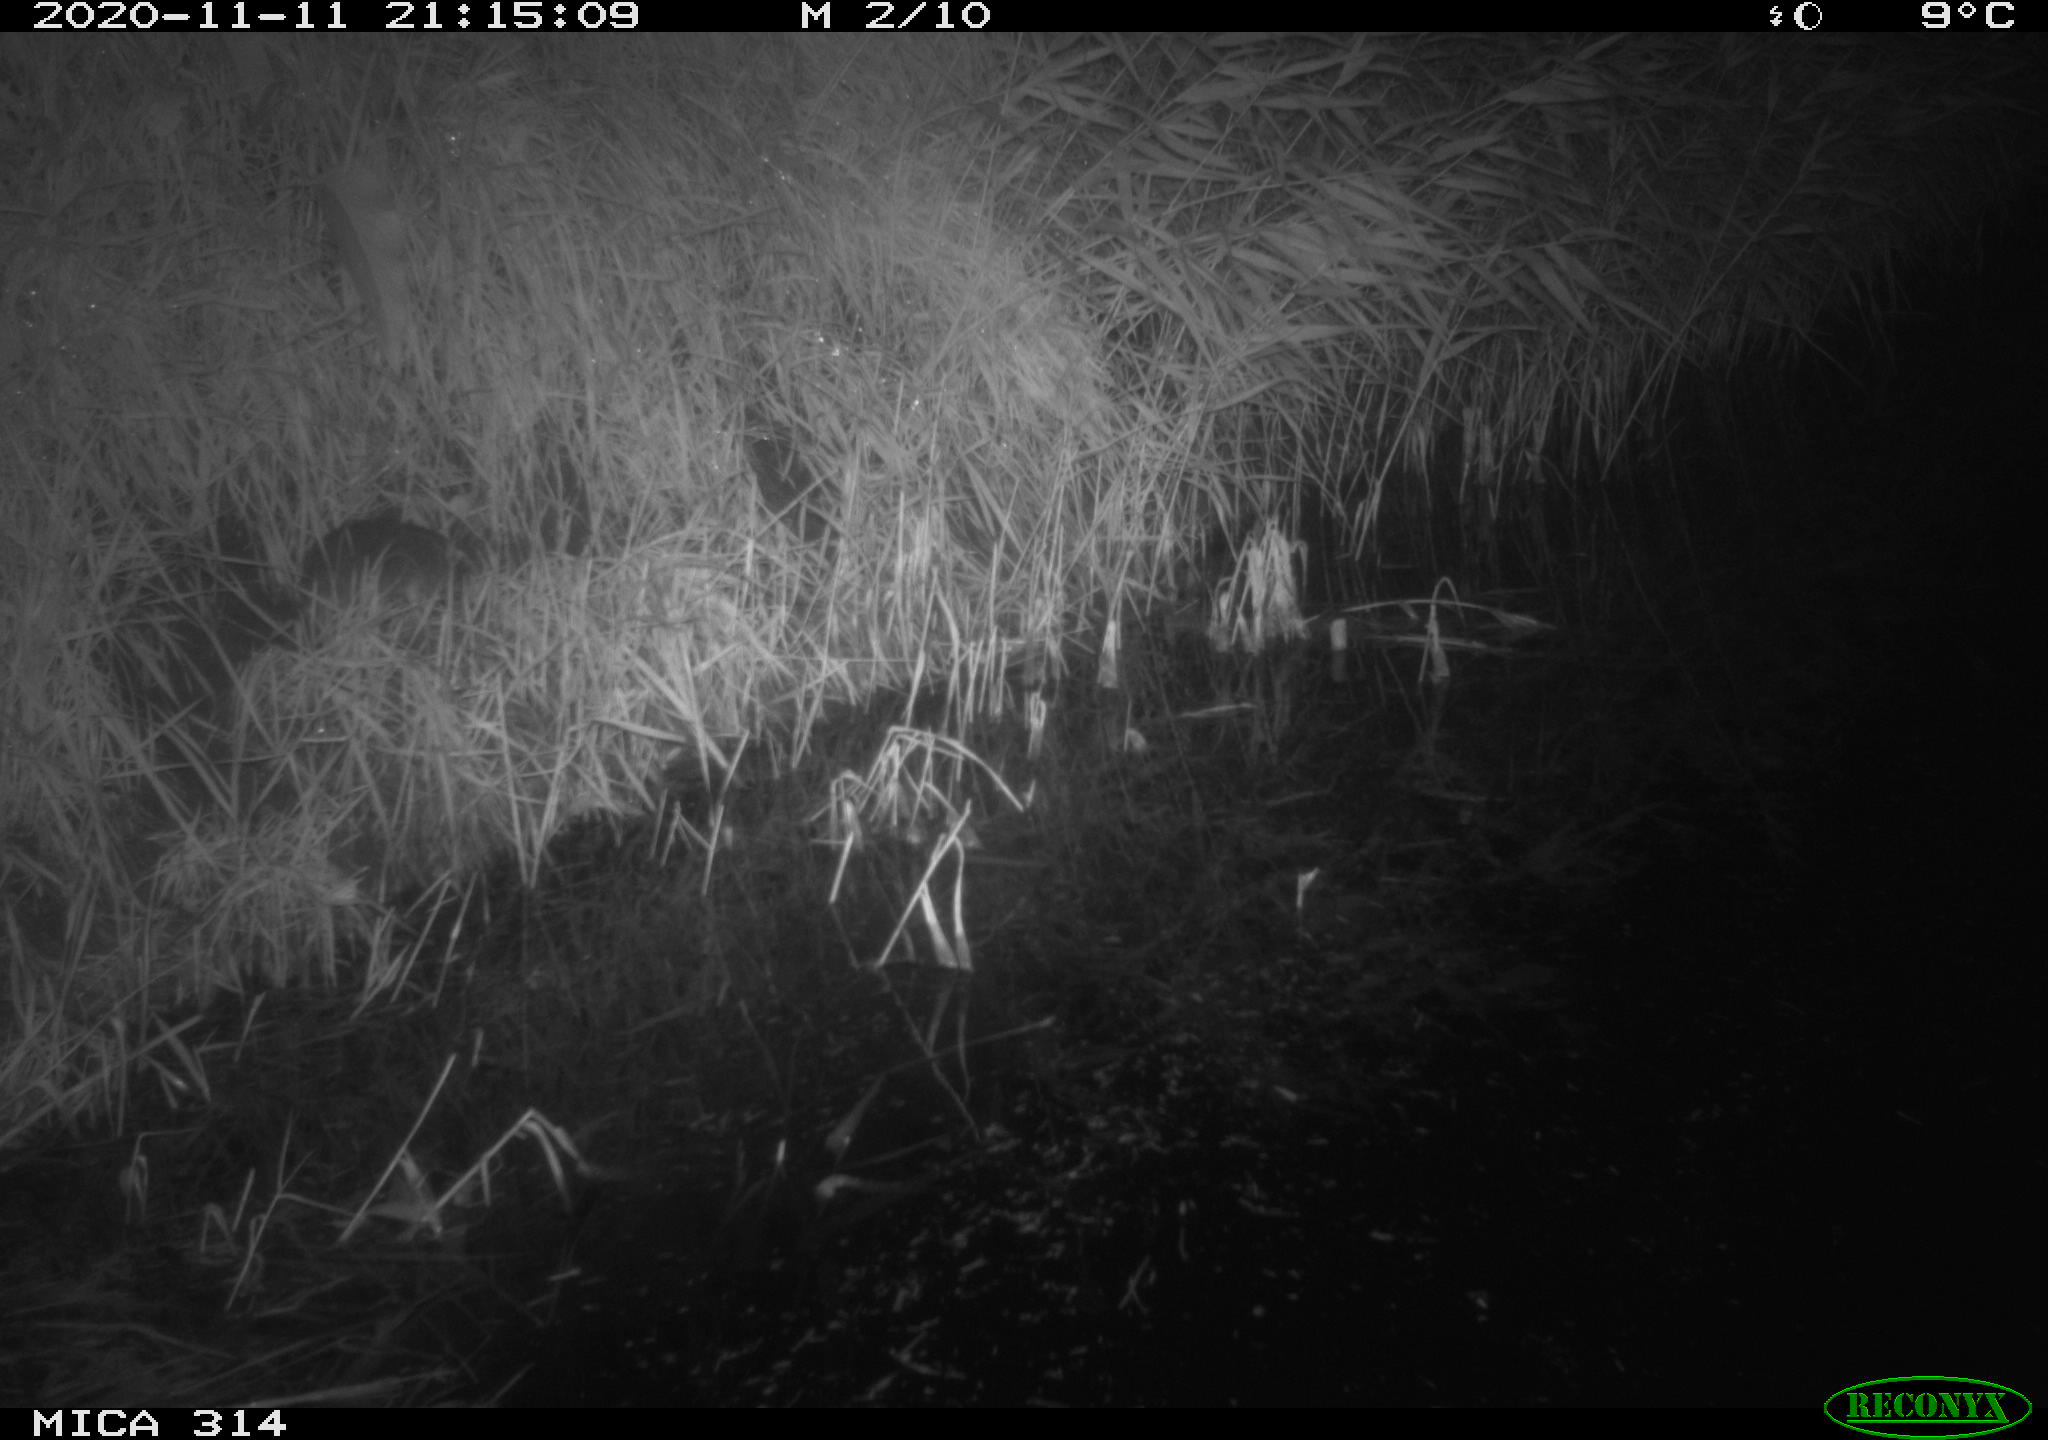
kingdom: Animalia
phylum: Chordata
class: Mammalia
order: Rodentia
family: Muridae
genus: Rattus
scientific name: Rattus norvegicus
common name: Brown rat
